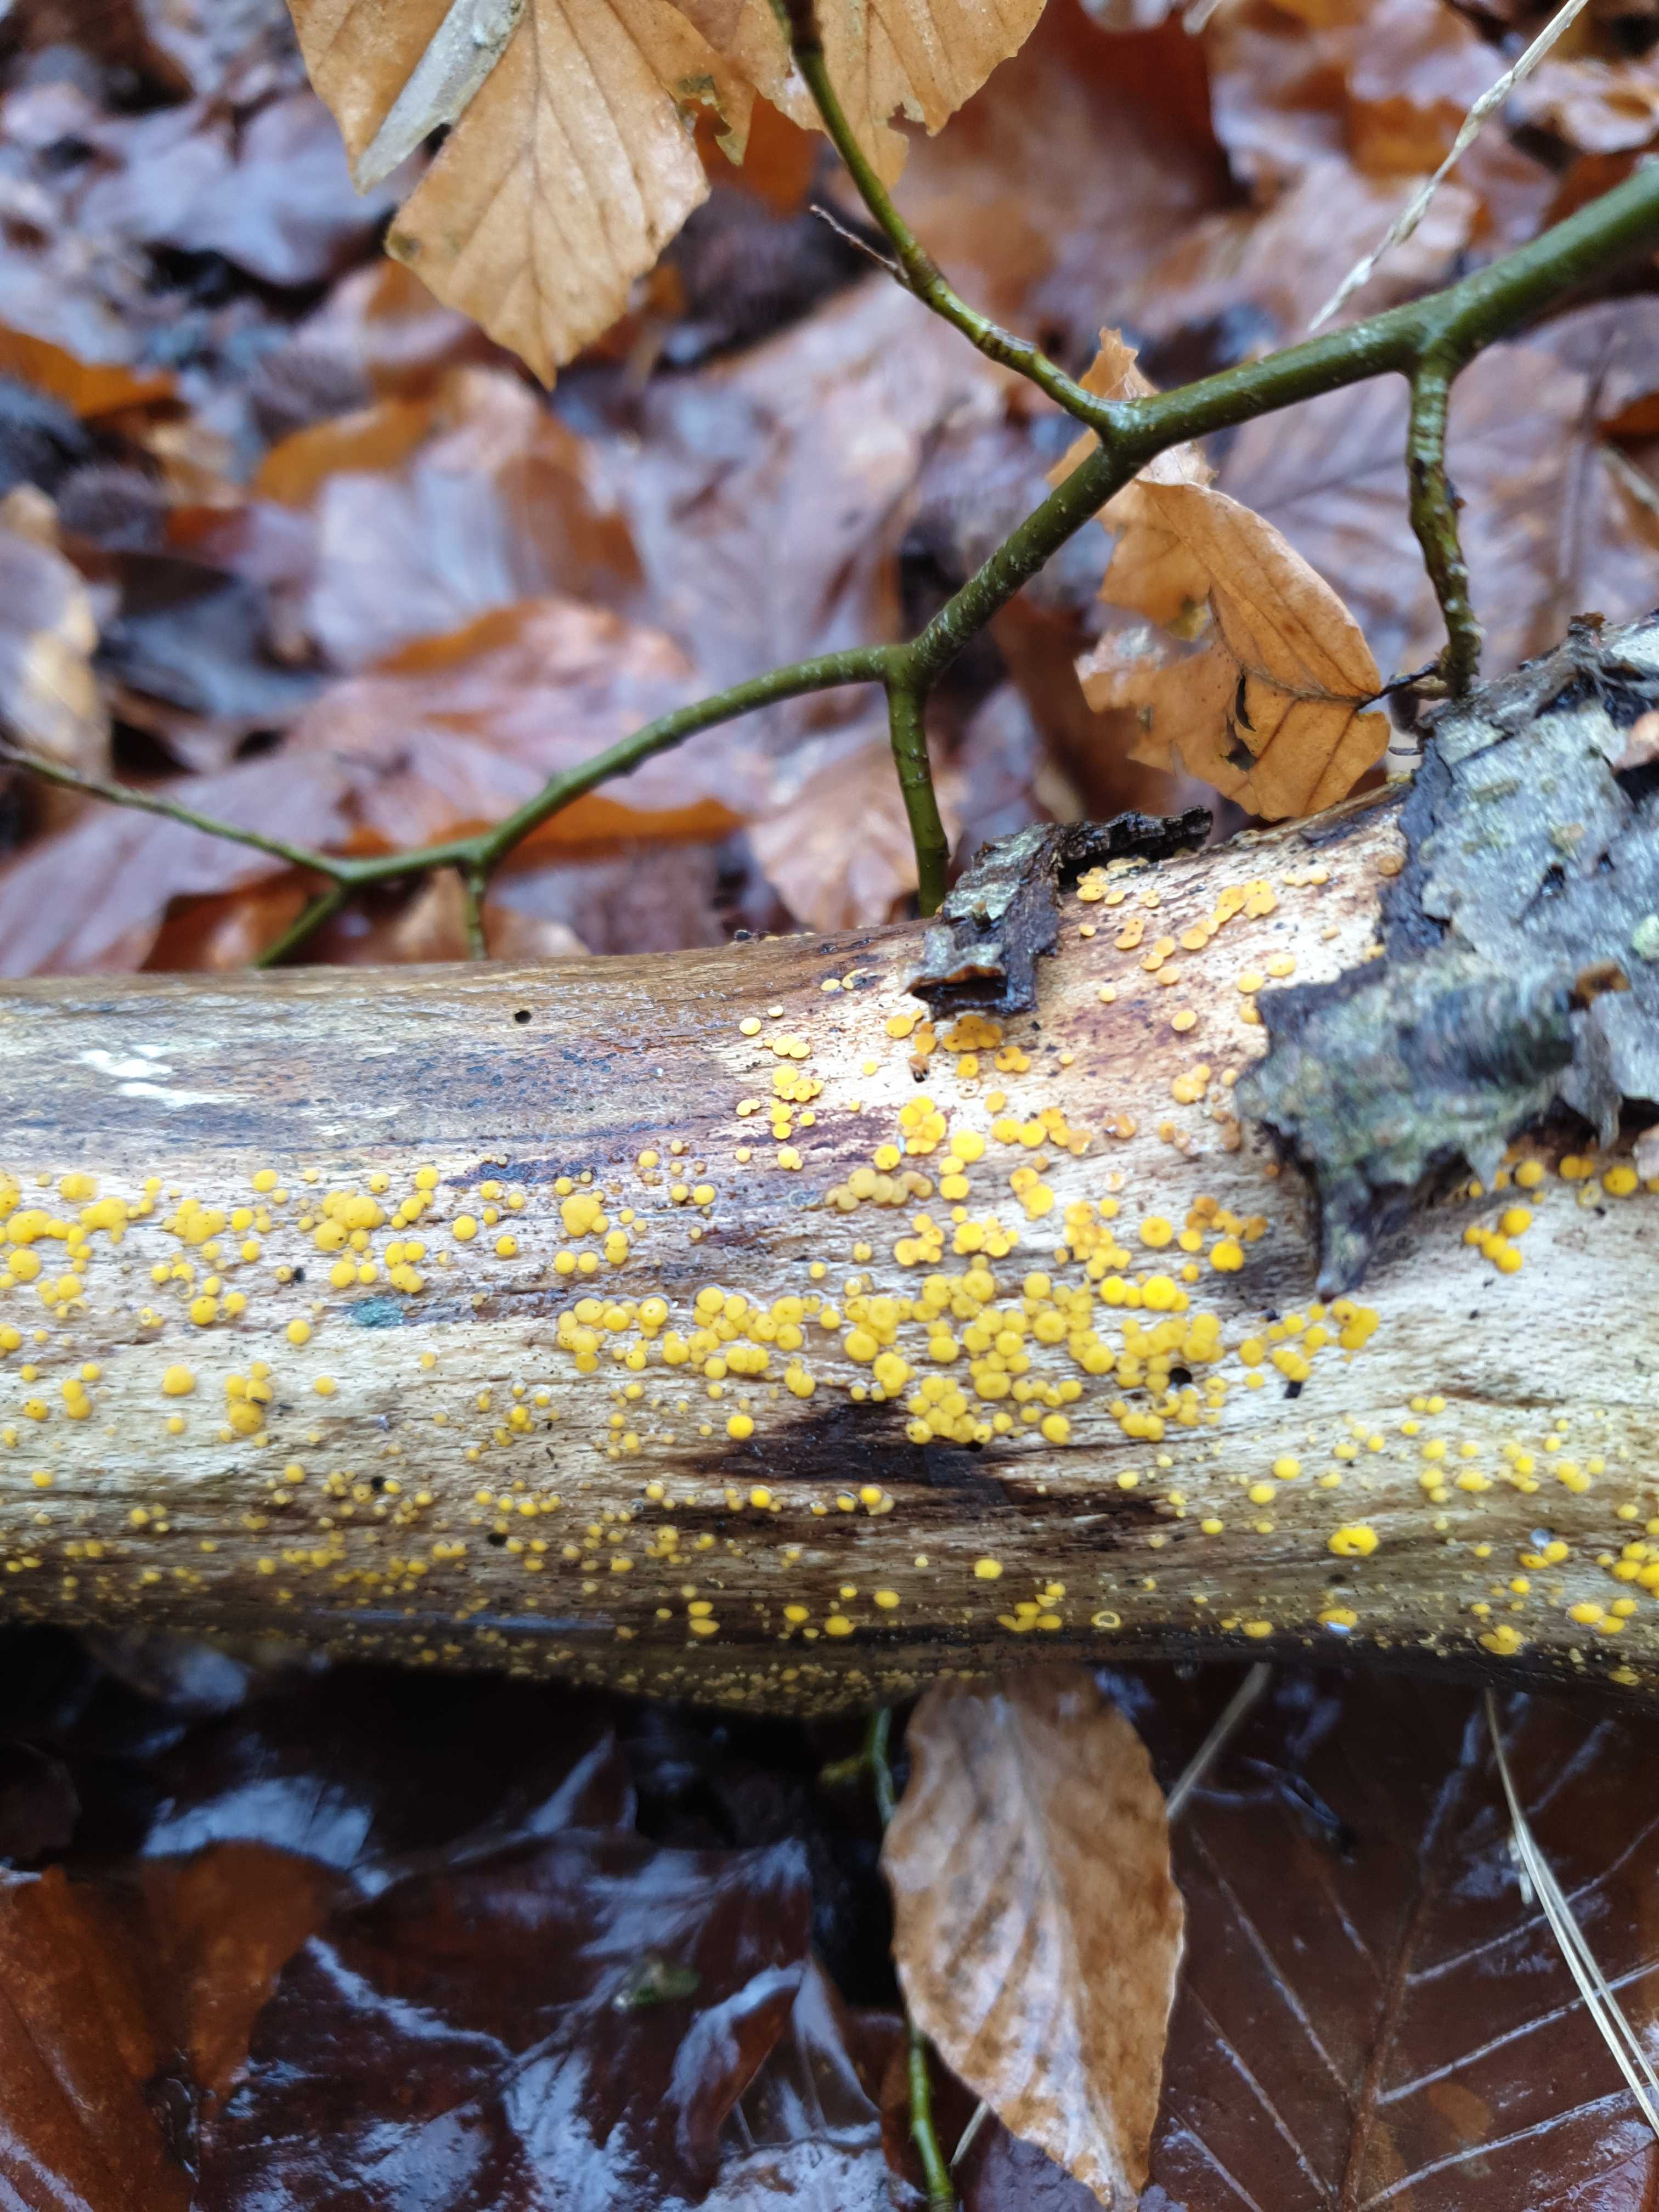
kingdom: Fungi
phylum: Ascomycota
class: Leotiomycetes
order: Helotiales
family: Pezizellaceae
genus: Calycina
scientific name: Calycina citrina
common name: almindelig gulskive
